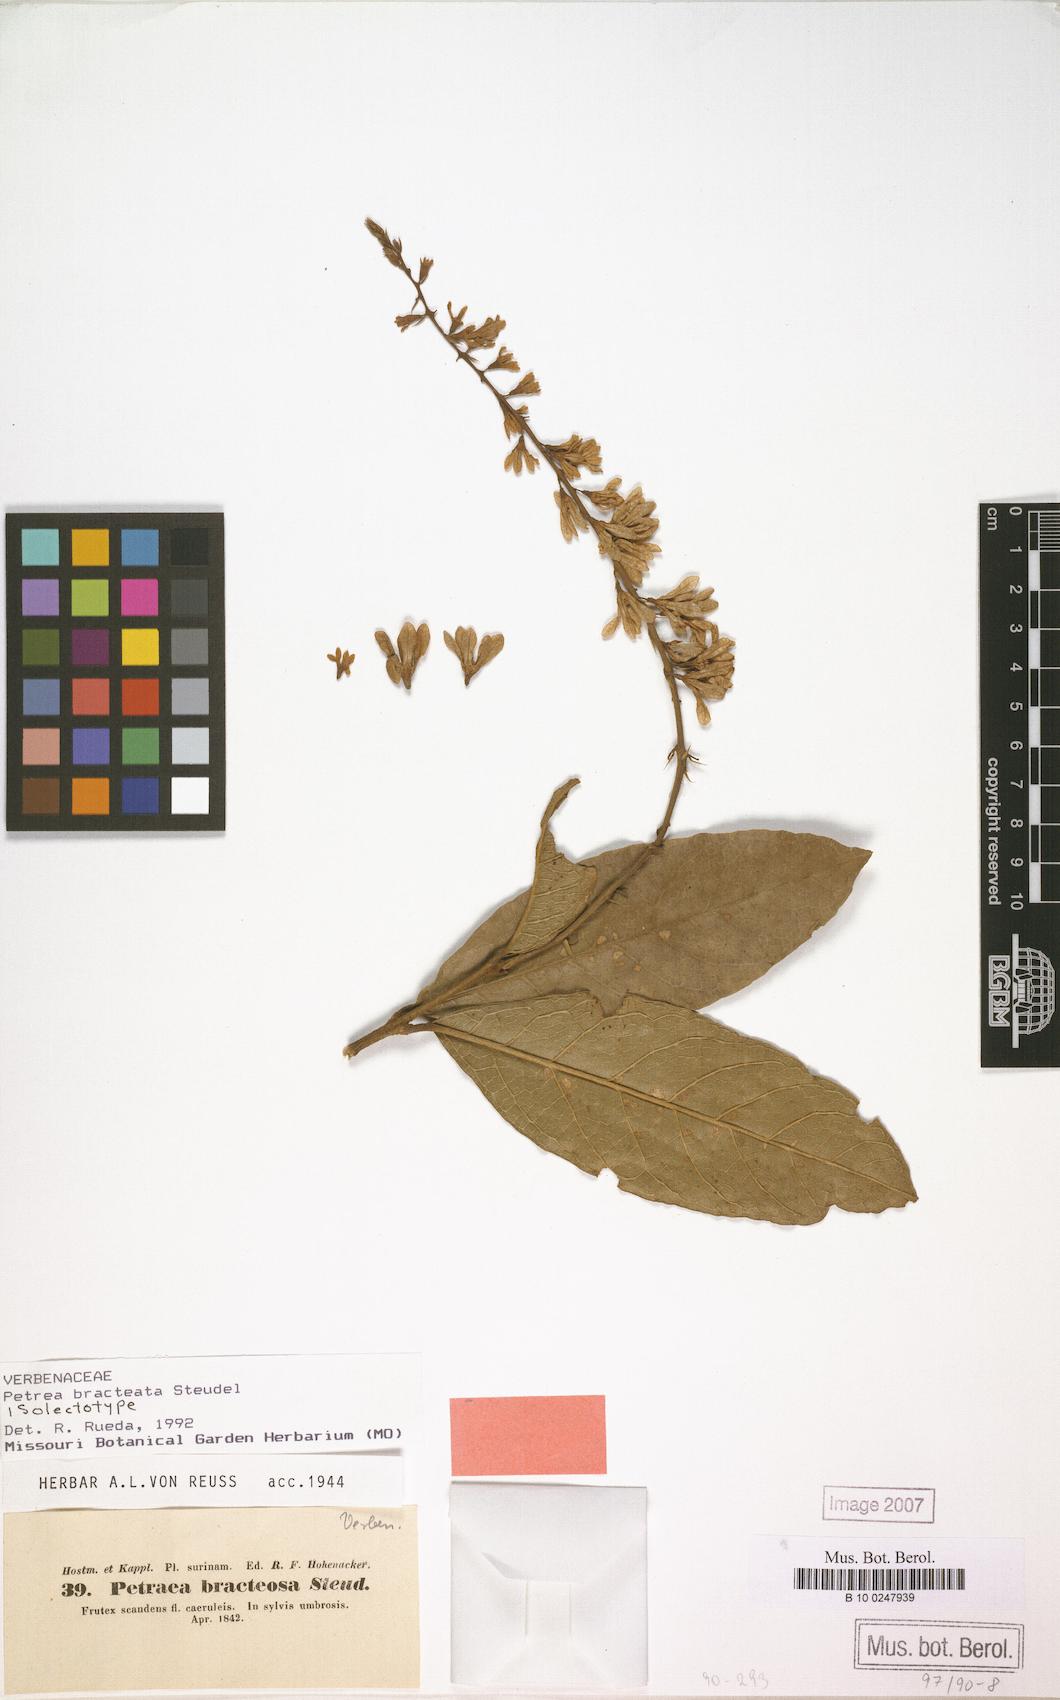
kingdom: Plantae
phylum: Tracheophyta
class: Magnoliopsida
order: Lamiales
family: Verbenaceae
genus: Petrea
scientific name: Petrea bracteata
